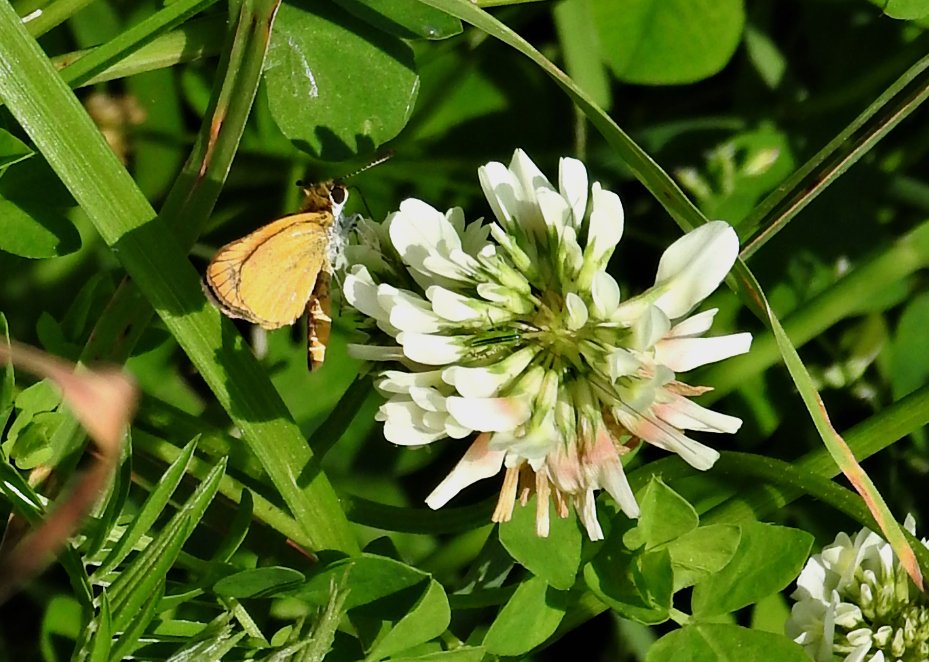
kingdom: Animalia
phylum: Arthropoda
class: Insecta
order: Lepidoptera
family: Hesperiidae
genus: Ancyloxypha
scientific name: Ancyloxypha numitor
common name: Least Skipper
